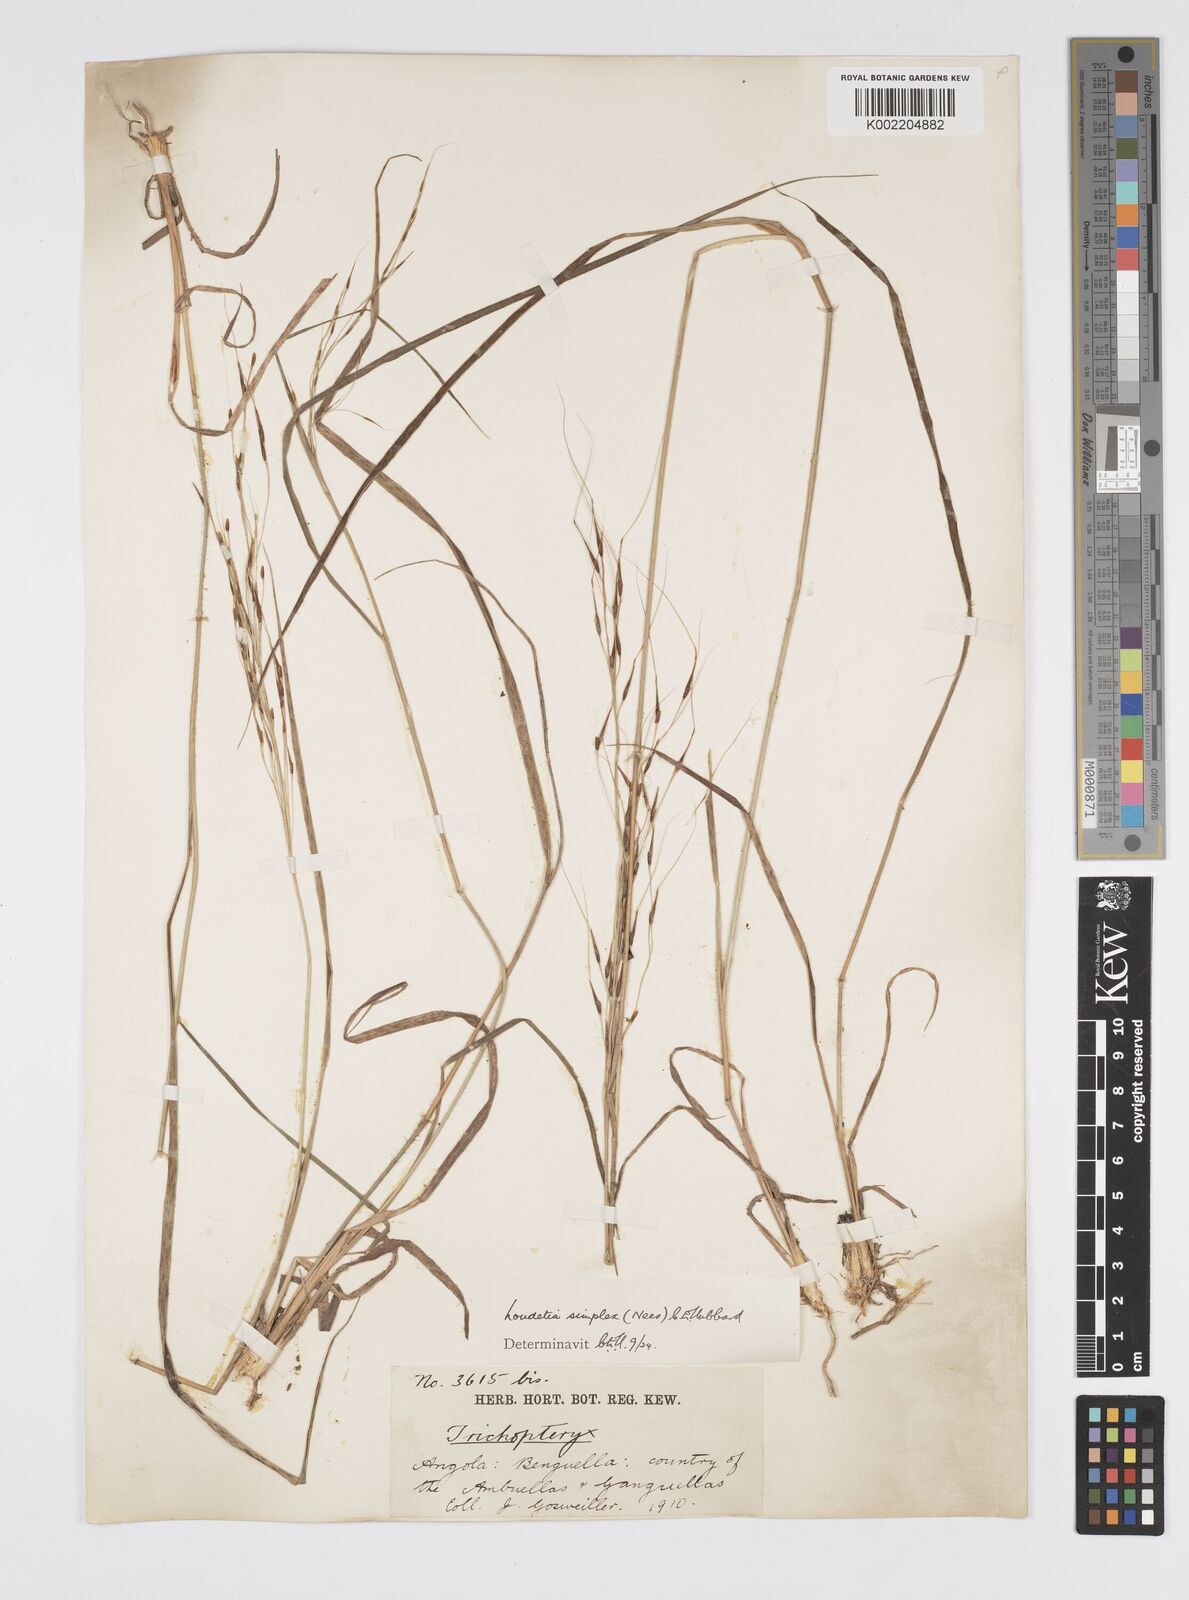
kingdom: Plantae
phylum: Tracheophyta
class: Liliopsida
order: Poales
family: Poaceae
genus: Loudetia
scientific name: Loudetia simplex
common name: Common russet grass
